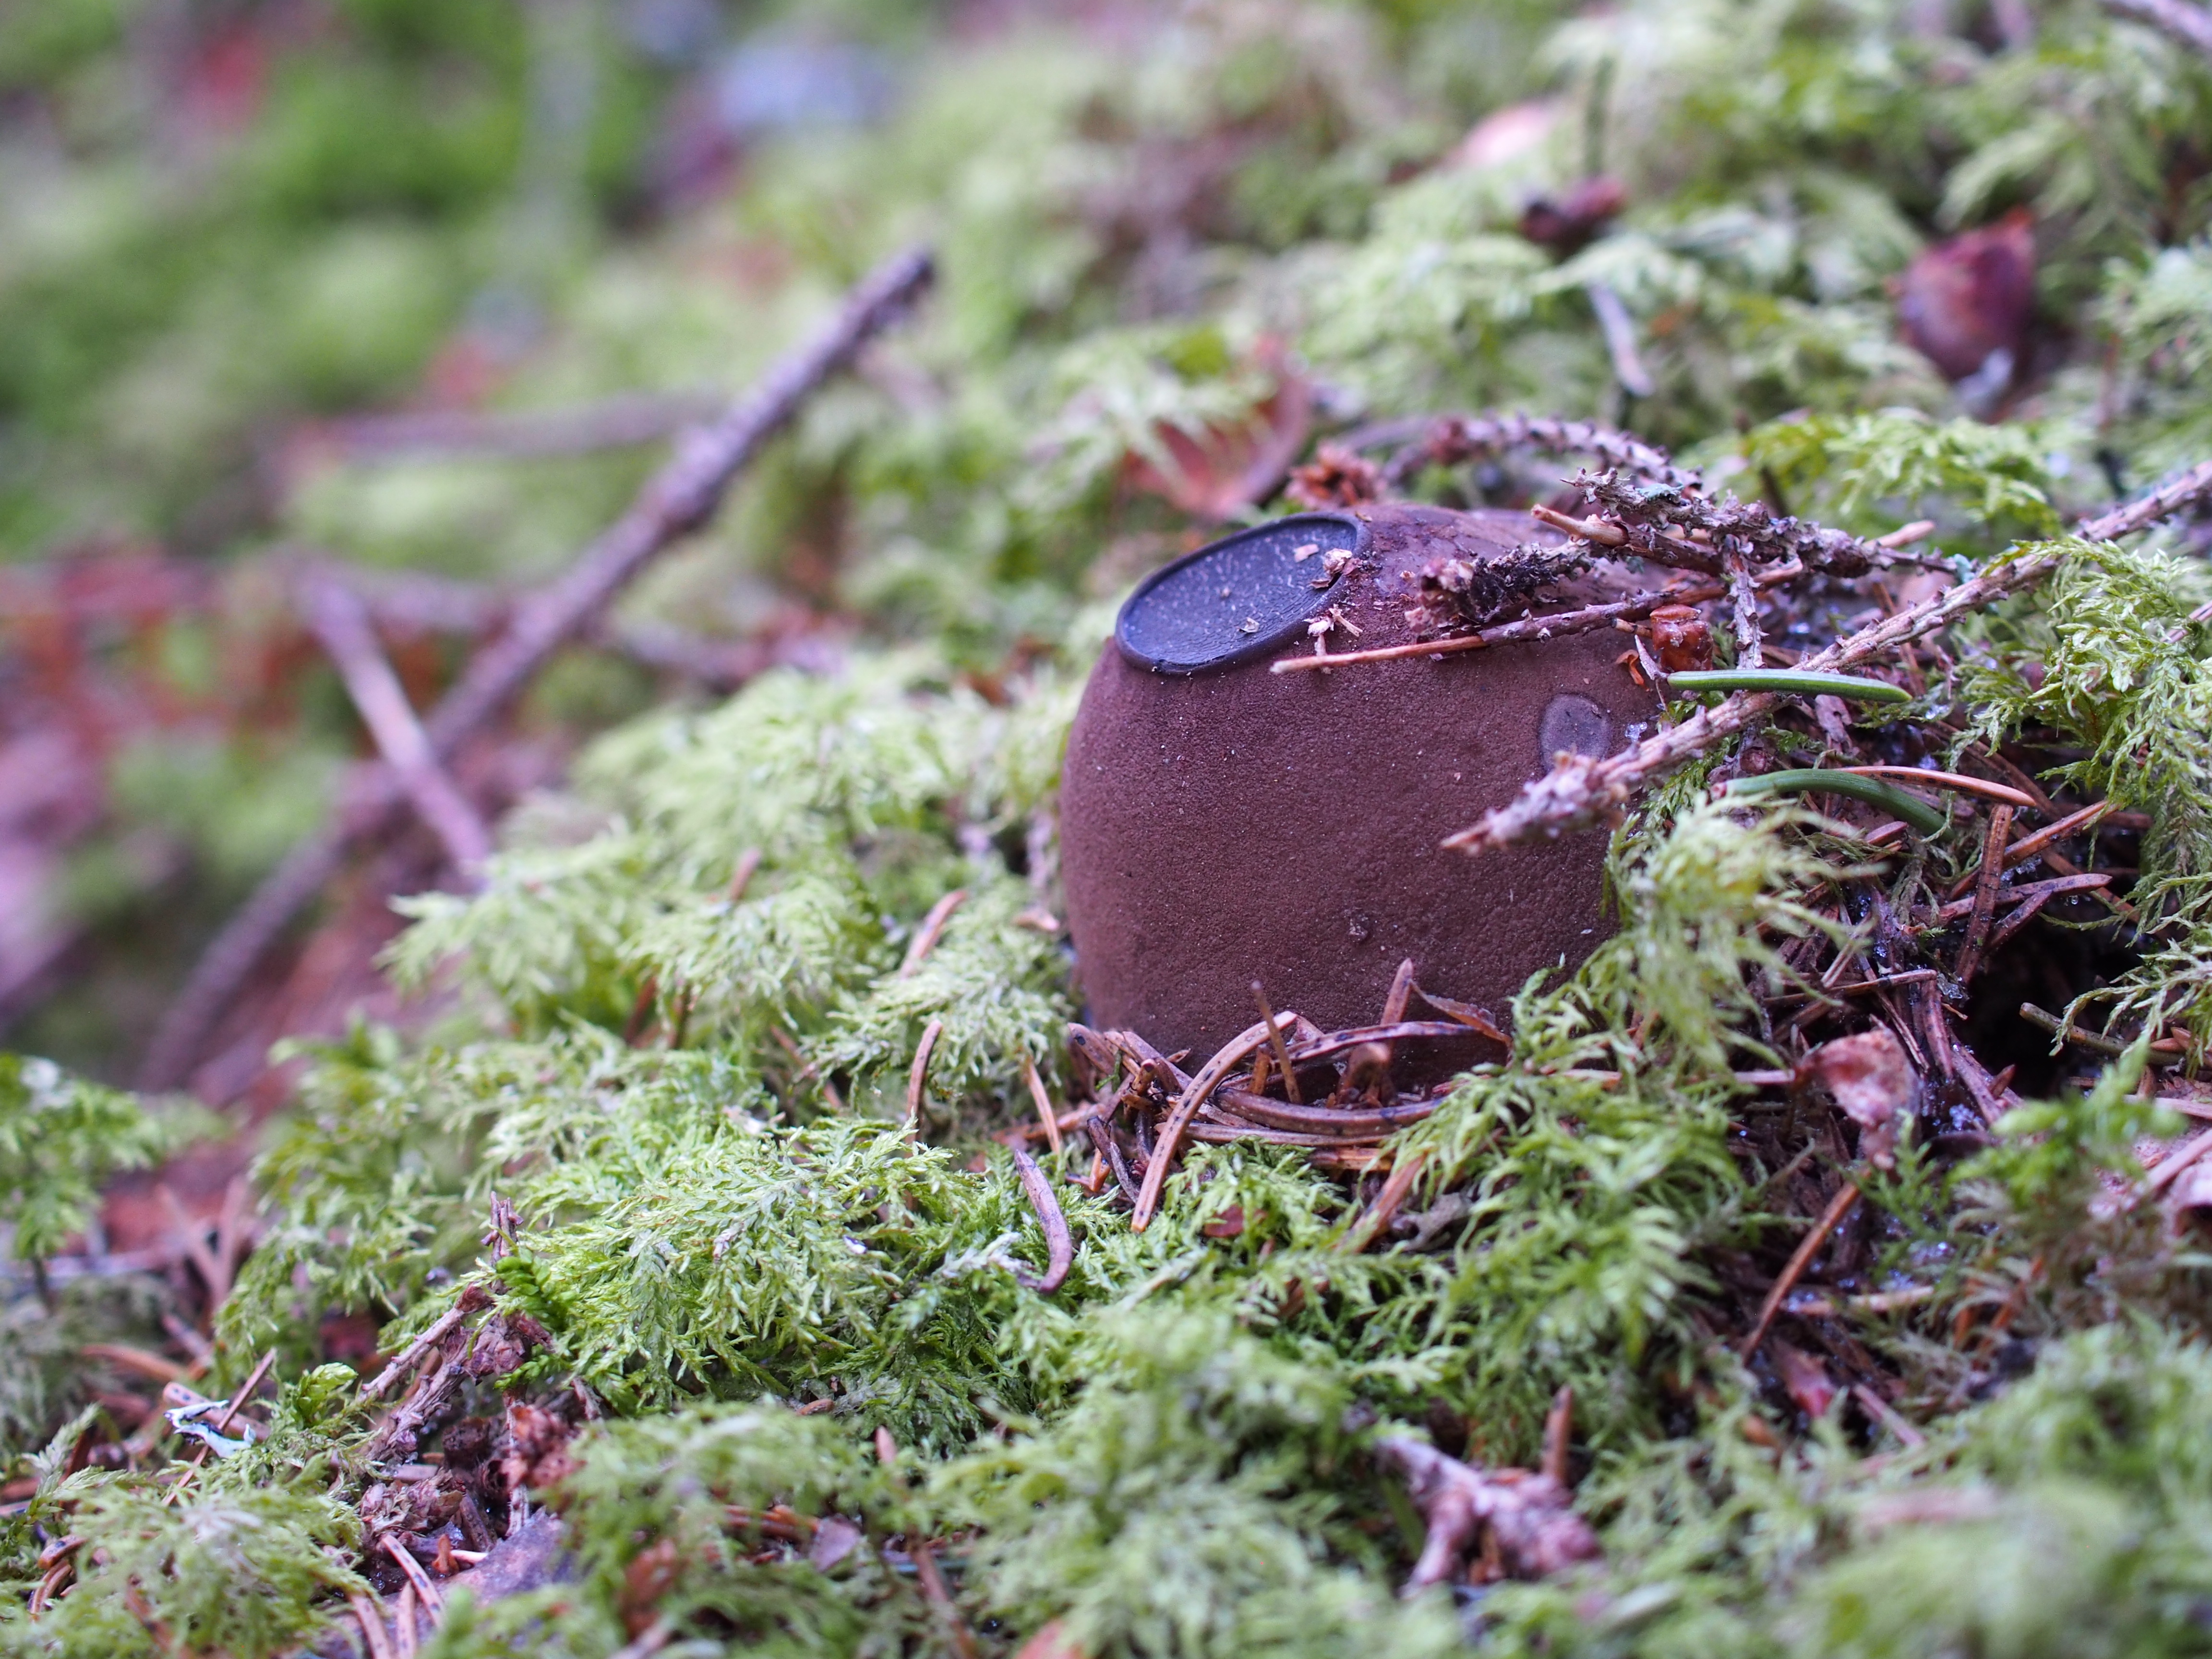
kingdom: Fungi
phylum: Ascomycota
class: Pezizomycetes
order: Pezizales
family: Sarcosomataceae
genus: Sarcosoma
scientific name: Sarcosoma globosum
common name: Charred-pancake cup
